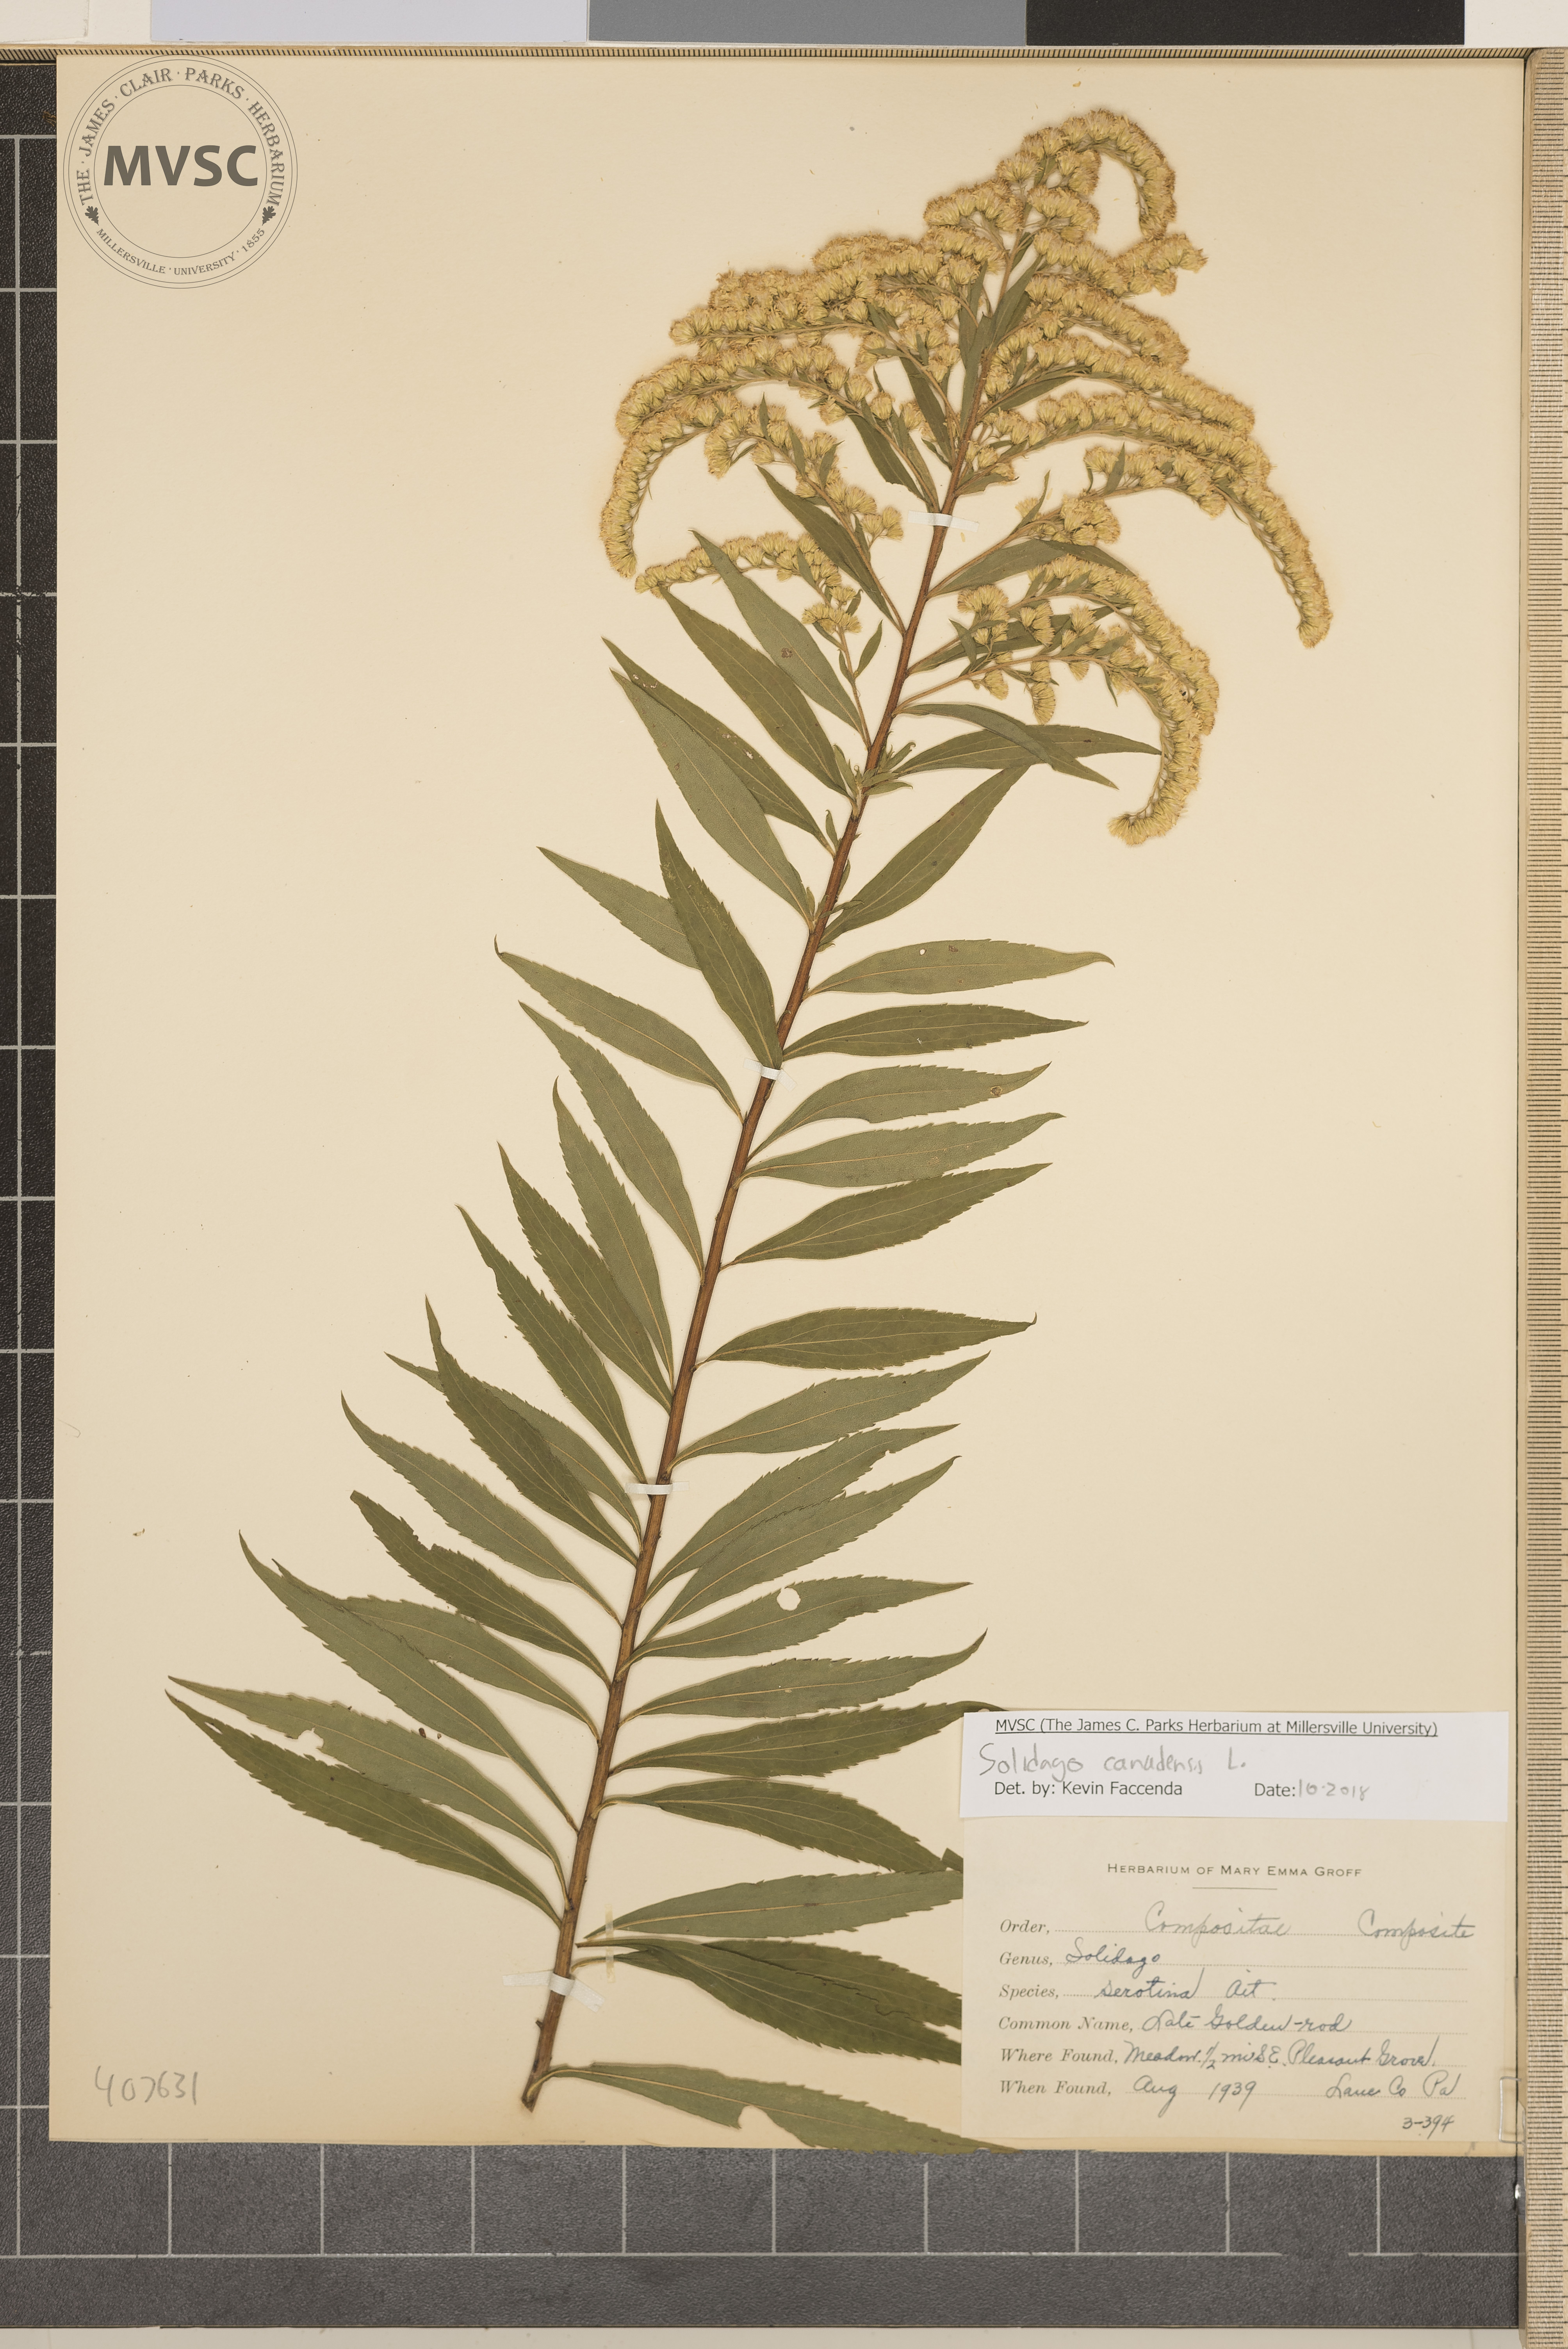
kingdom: Plantae
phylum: Tracheophyta
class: Magnoliopsida
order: Asterales
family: Asteraceae
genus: Solidago
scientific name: Solidago canadensis
